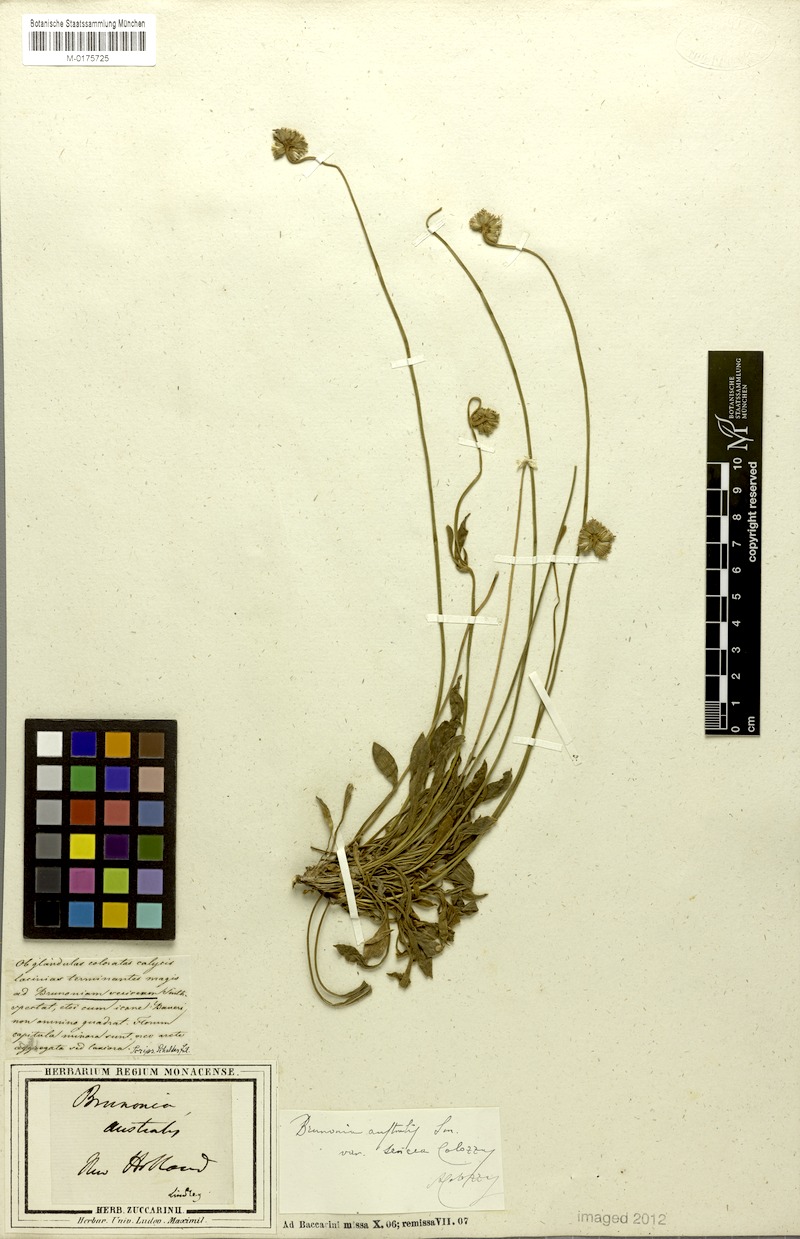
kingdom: Plantae
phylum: Tracheophyta
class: Magnoliopsida
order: Asterales
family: Goodeniaceae
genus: Brunonia
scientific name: Brunonia australis
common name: Blue pincushion
